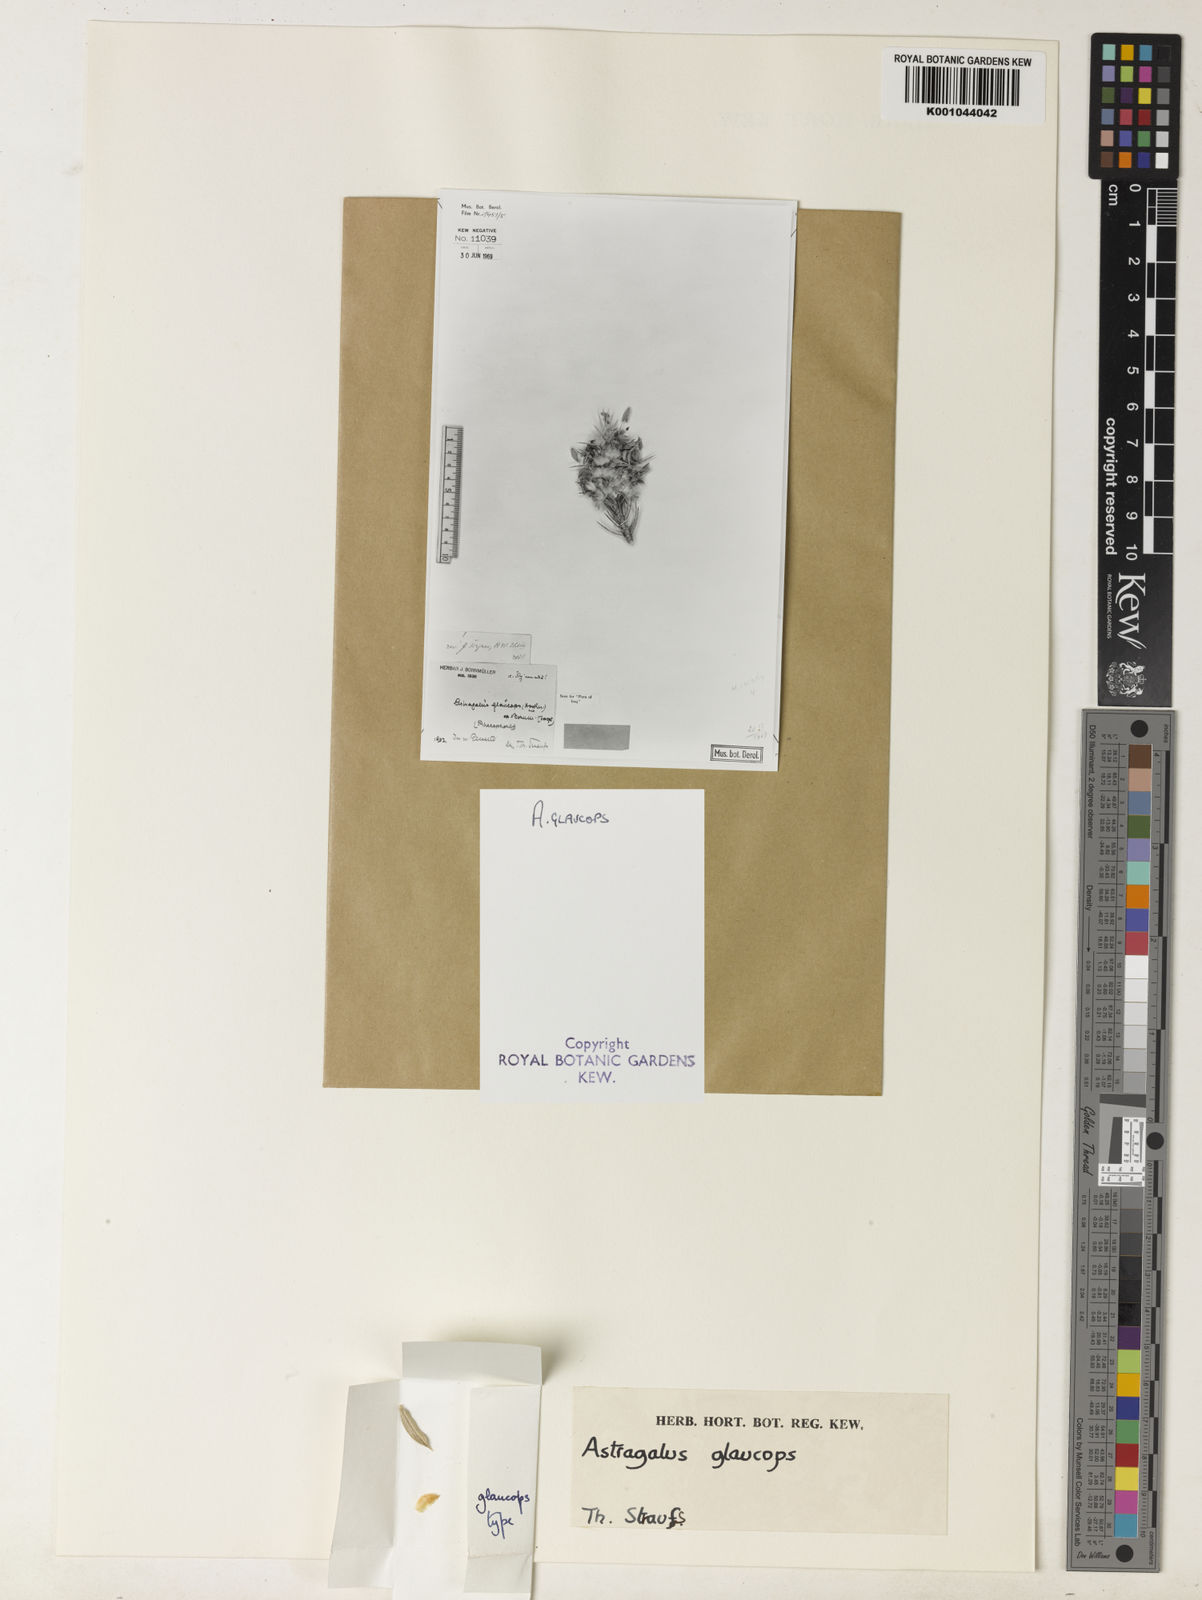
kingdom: Plantae
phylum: Tracheophyta
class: Magnoliopsida
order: Fabales
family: Fabaceae
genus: Astragalus
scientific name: Astragalus glaucops
